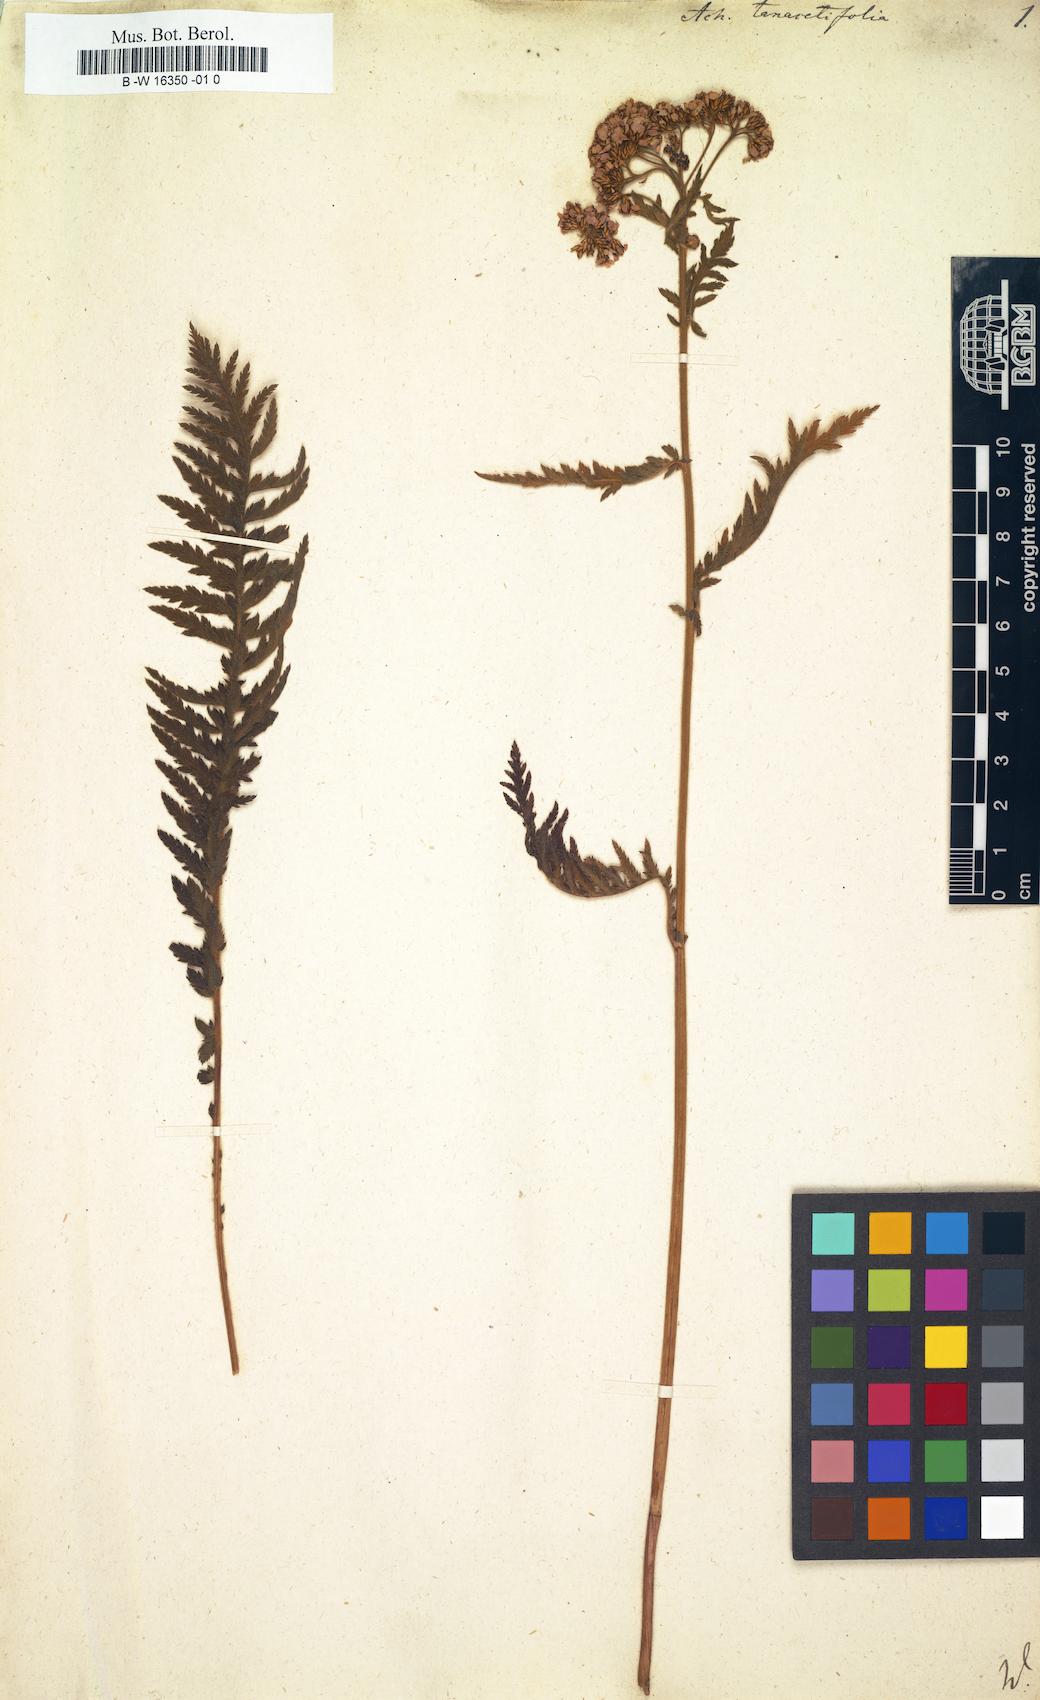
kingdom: Plantae
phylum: Tracheophyta
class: Magnoliopsida
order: Asterales
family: Asteraceae
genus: Achillea
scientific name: Achillea distans
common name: Tall yarrow
